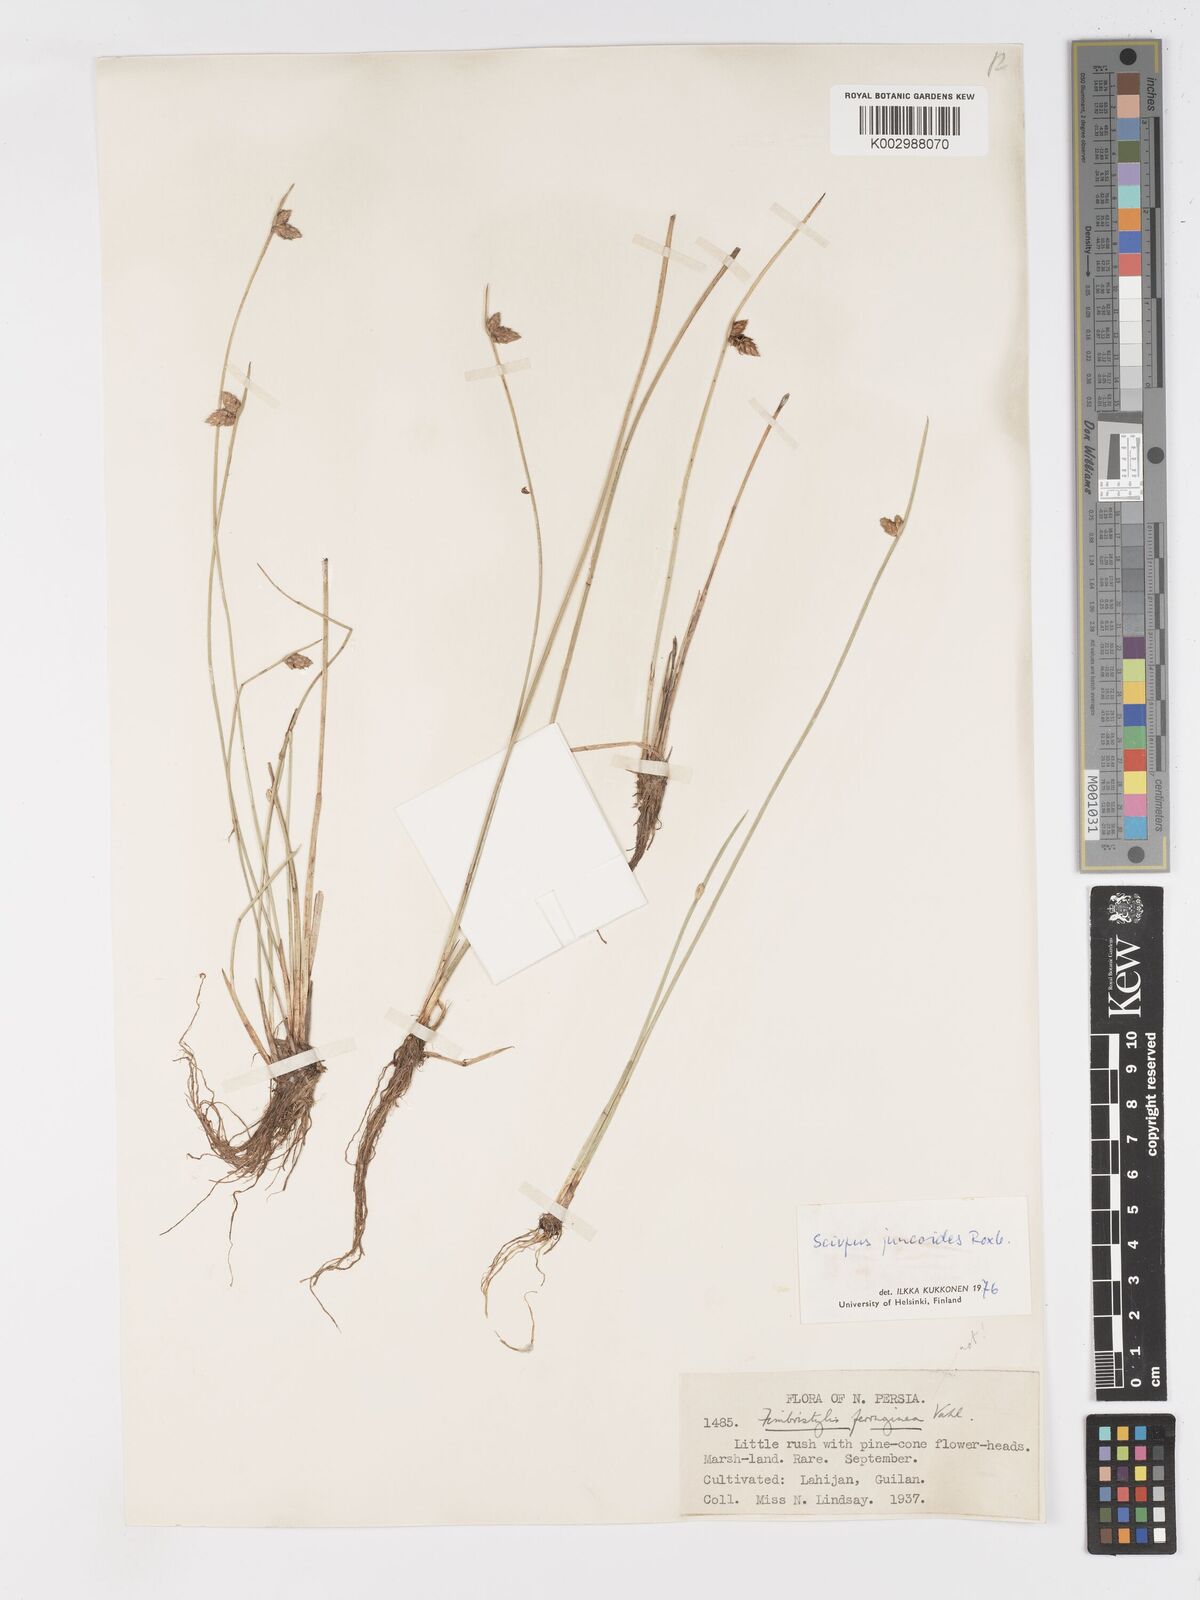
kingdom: Plantae
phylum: Tracheophyta
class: Liliopsida
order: Poales
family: Cyperaceae
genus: Schoenoplectiella
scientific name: Schoenoplectiella juncoides
